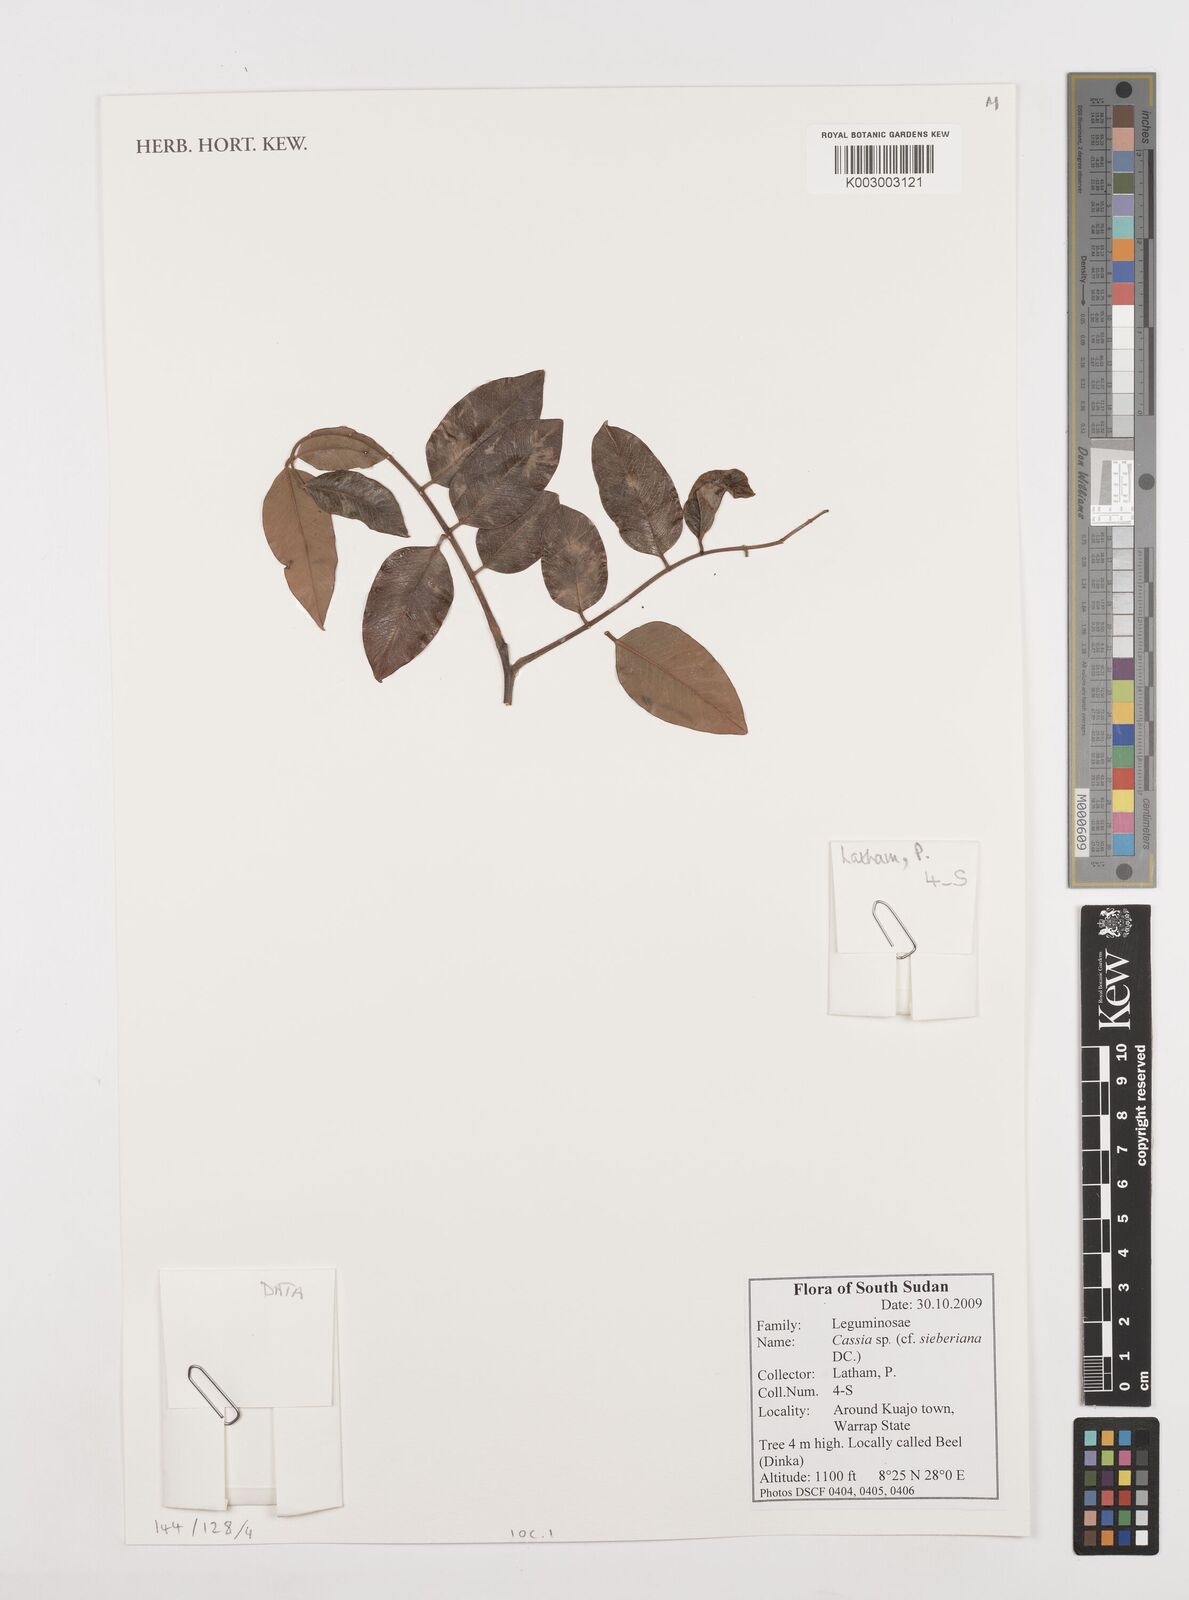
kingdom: Plantae
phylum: Tracheophyta
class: Magnoliopsida
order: Fabales
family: Fabaceae
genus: Cassia
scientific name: Cassia sieberiana
